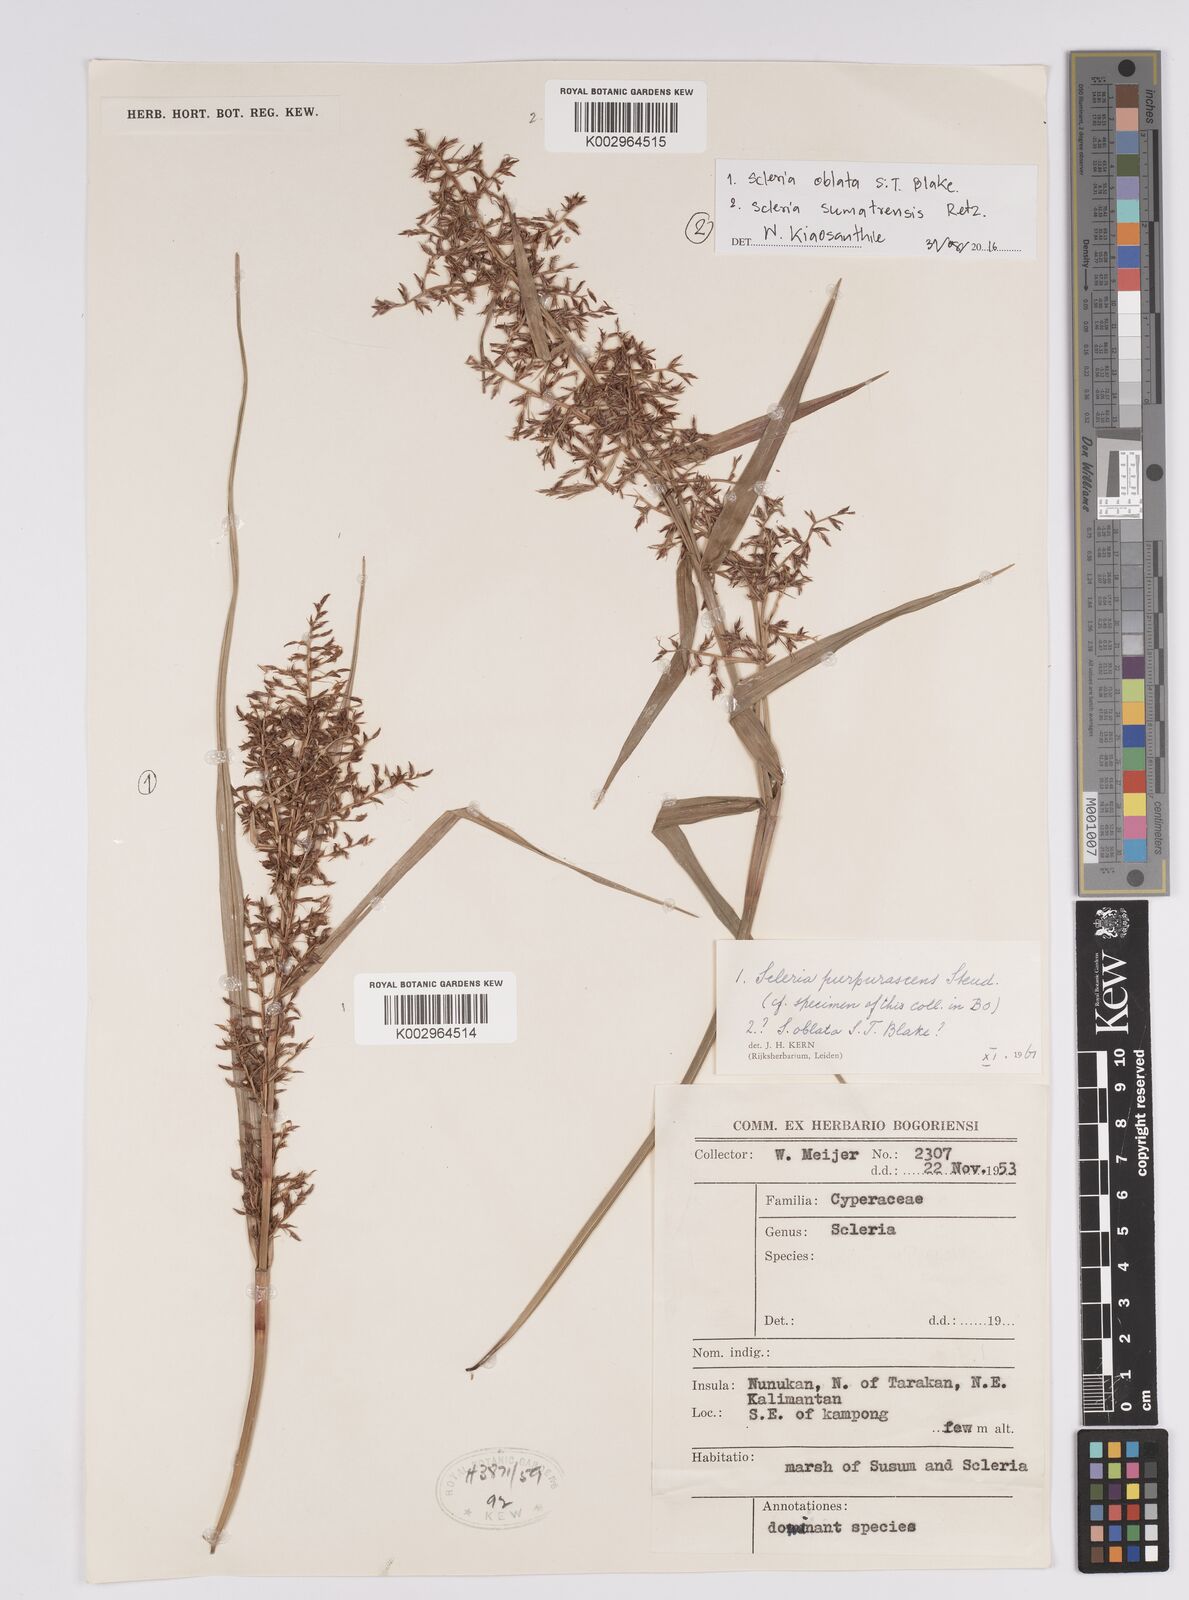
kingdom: Plantae
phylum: Tracheophyta
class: Liliopsida
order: Poales
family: Cyperaceae
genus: Scleria
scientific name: Scleria sumatrensis
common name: Sumatran scleria
